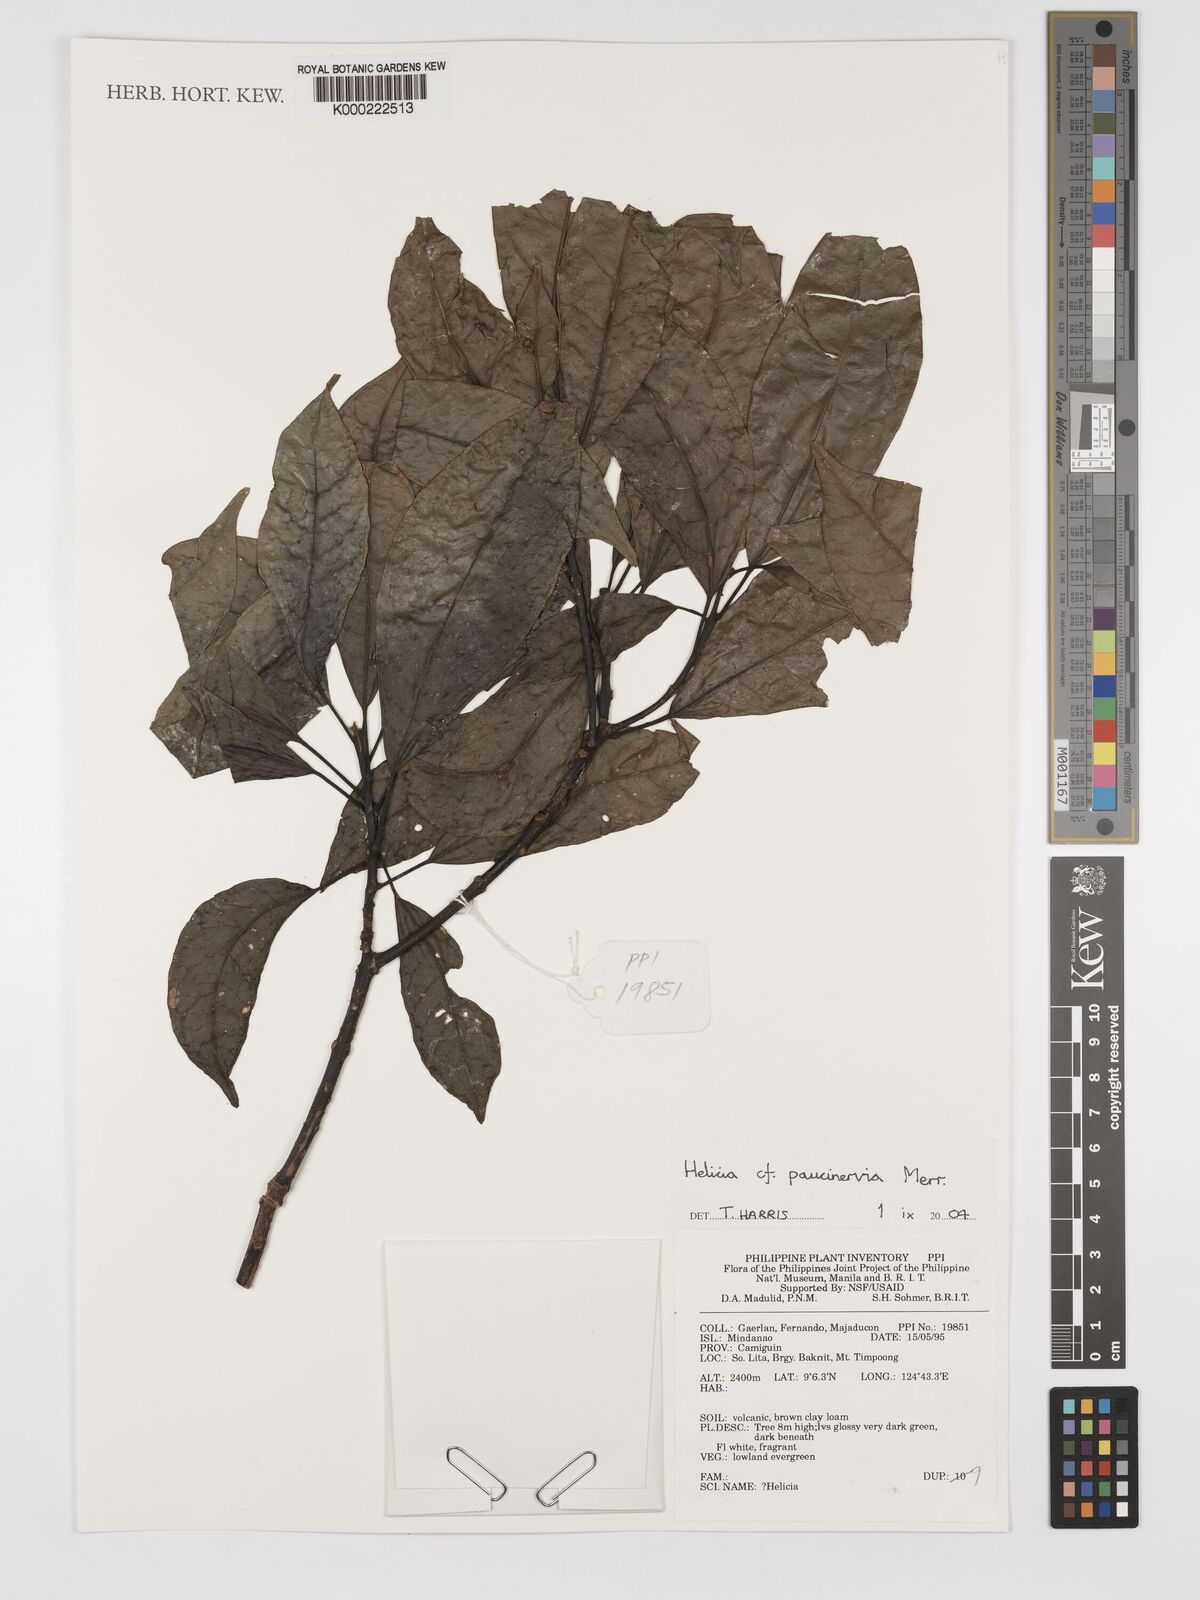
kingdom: Plantae
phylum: Tracheophyta
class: Magnoliopsida
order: Proteales
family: Proteaceae
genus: Helicia
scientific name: Helicia paucinervia
